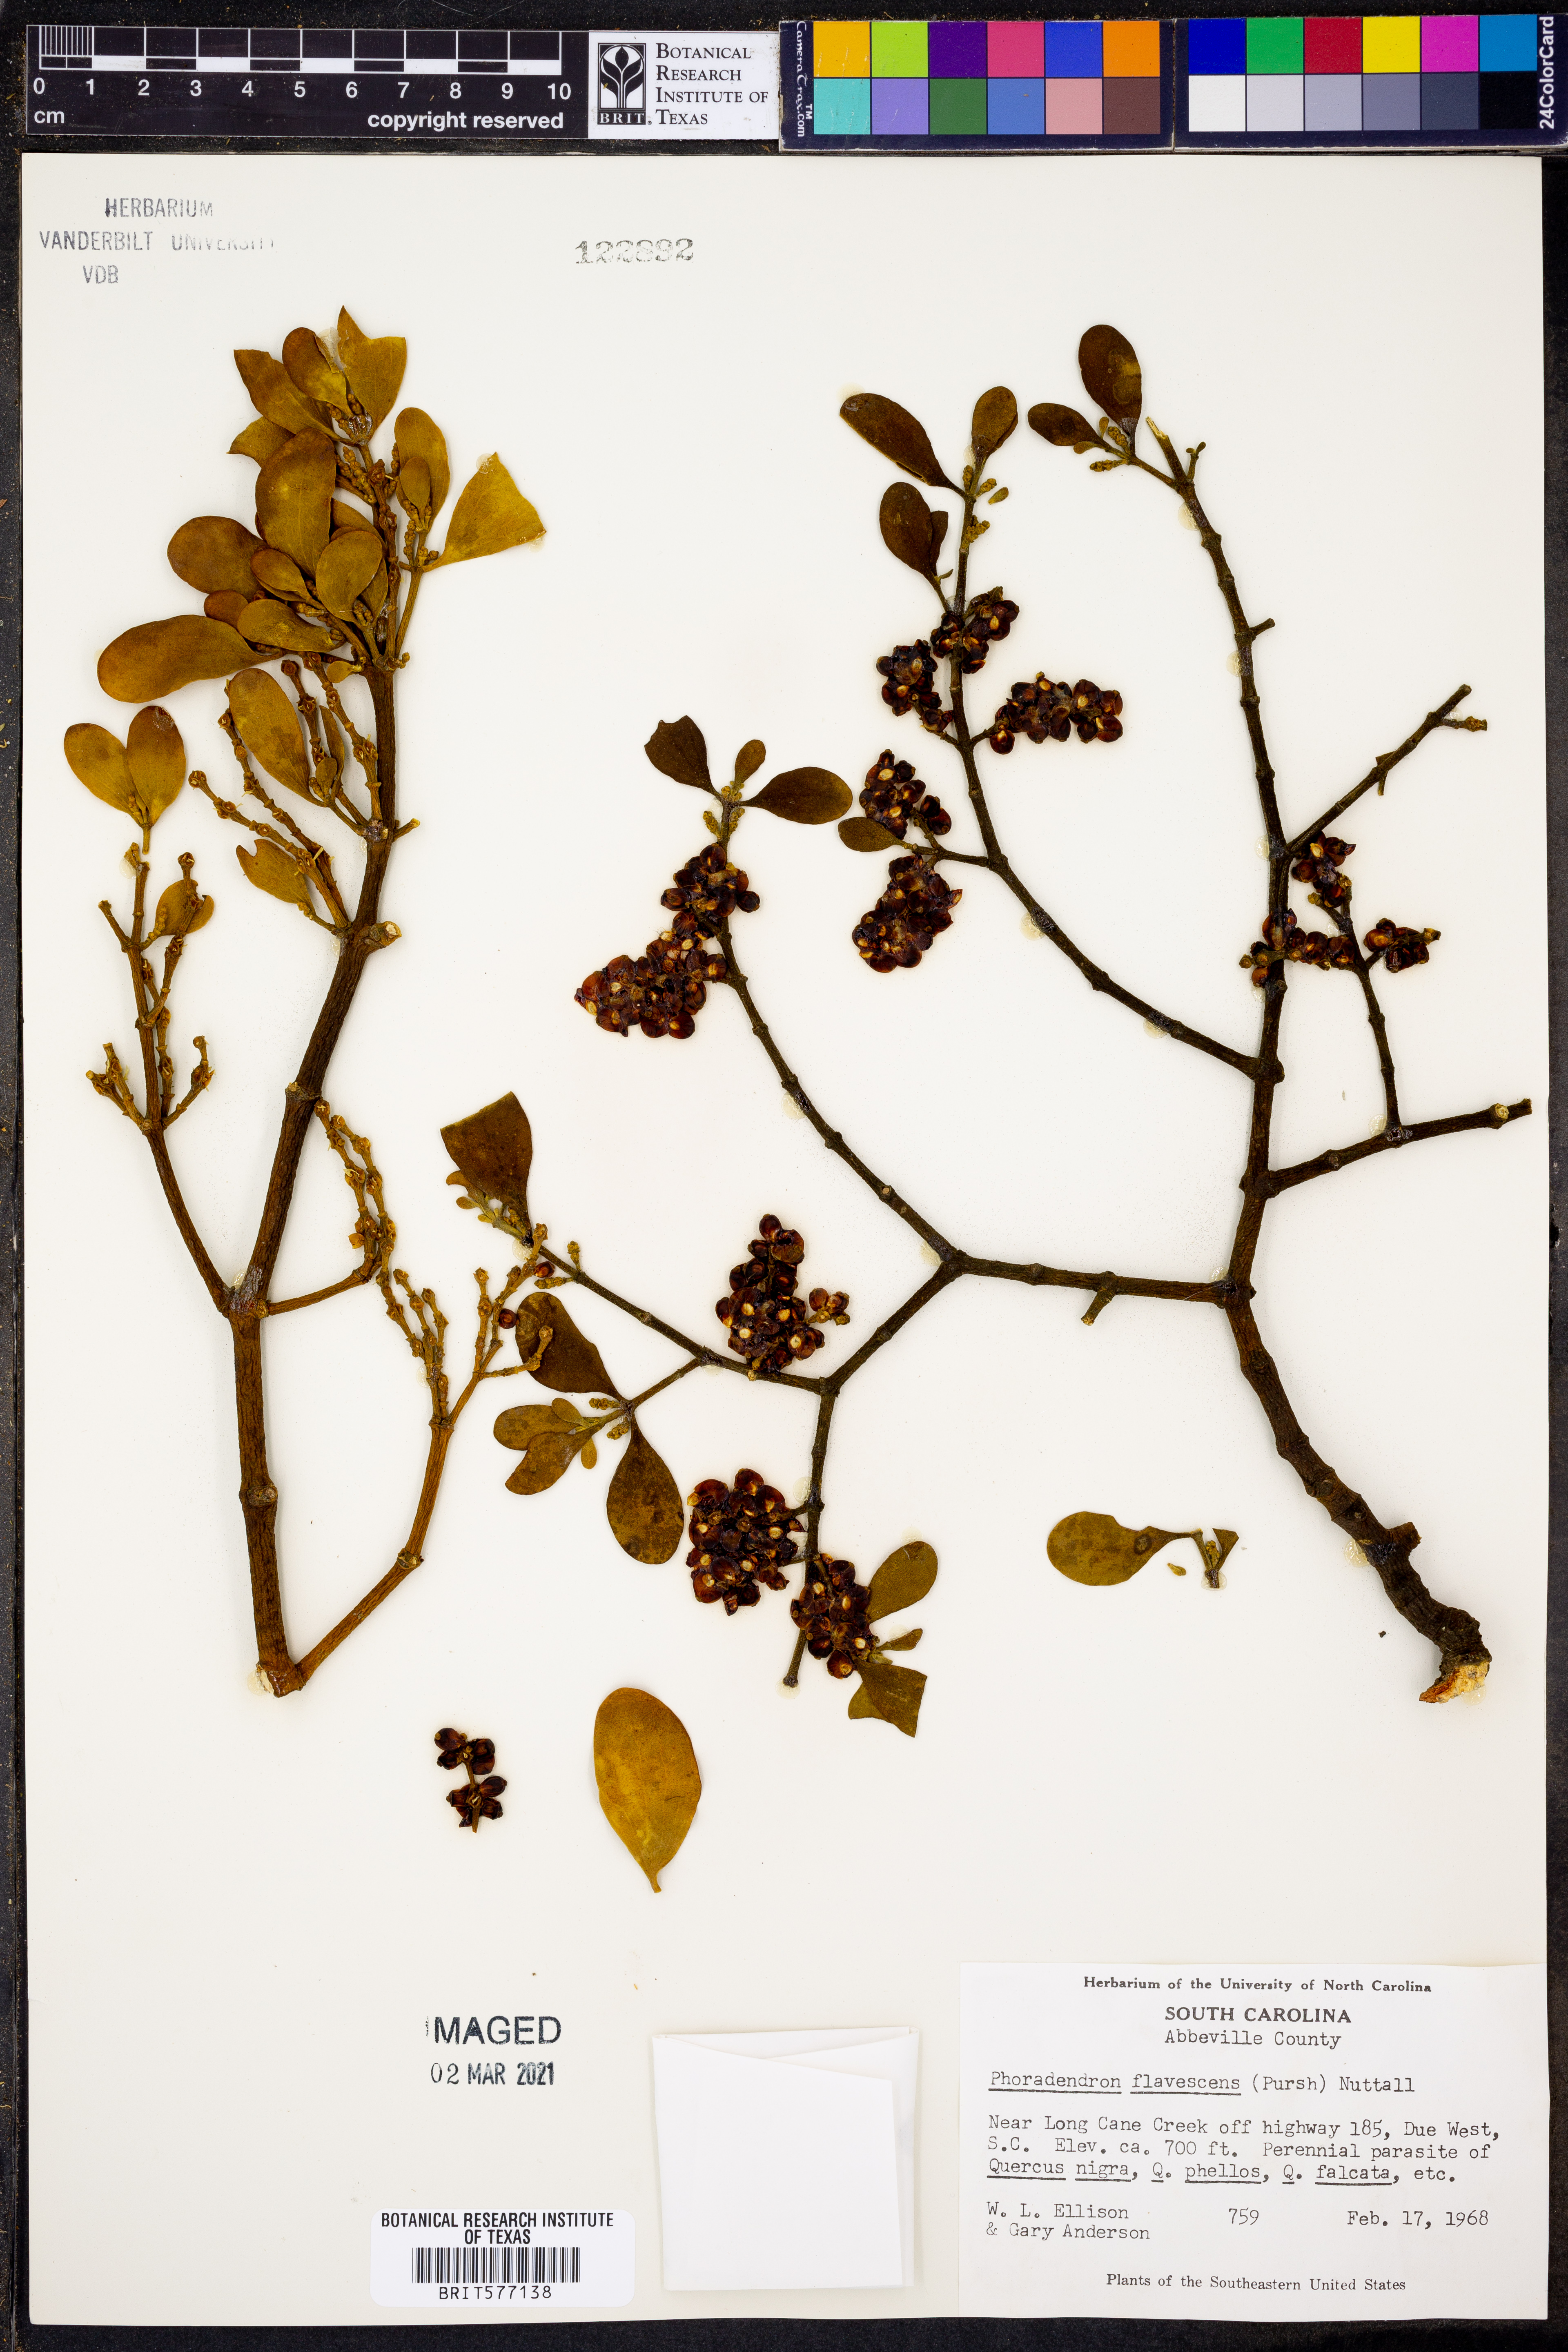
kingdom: Plantae
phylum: Tracheophyta
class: Magnoliopsida
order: Santalales
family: Viscaceae
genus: Phoradendron
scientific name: Phoradendron leucarpum
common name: Pacific mistletoe
